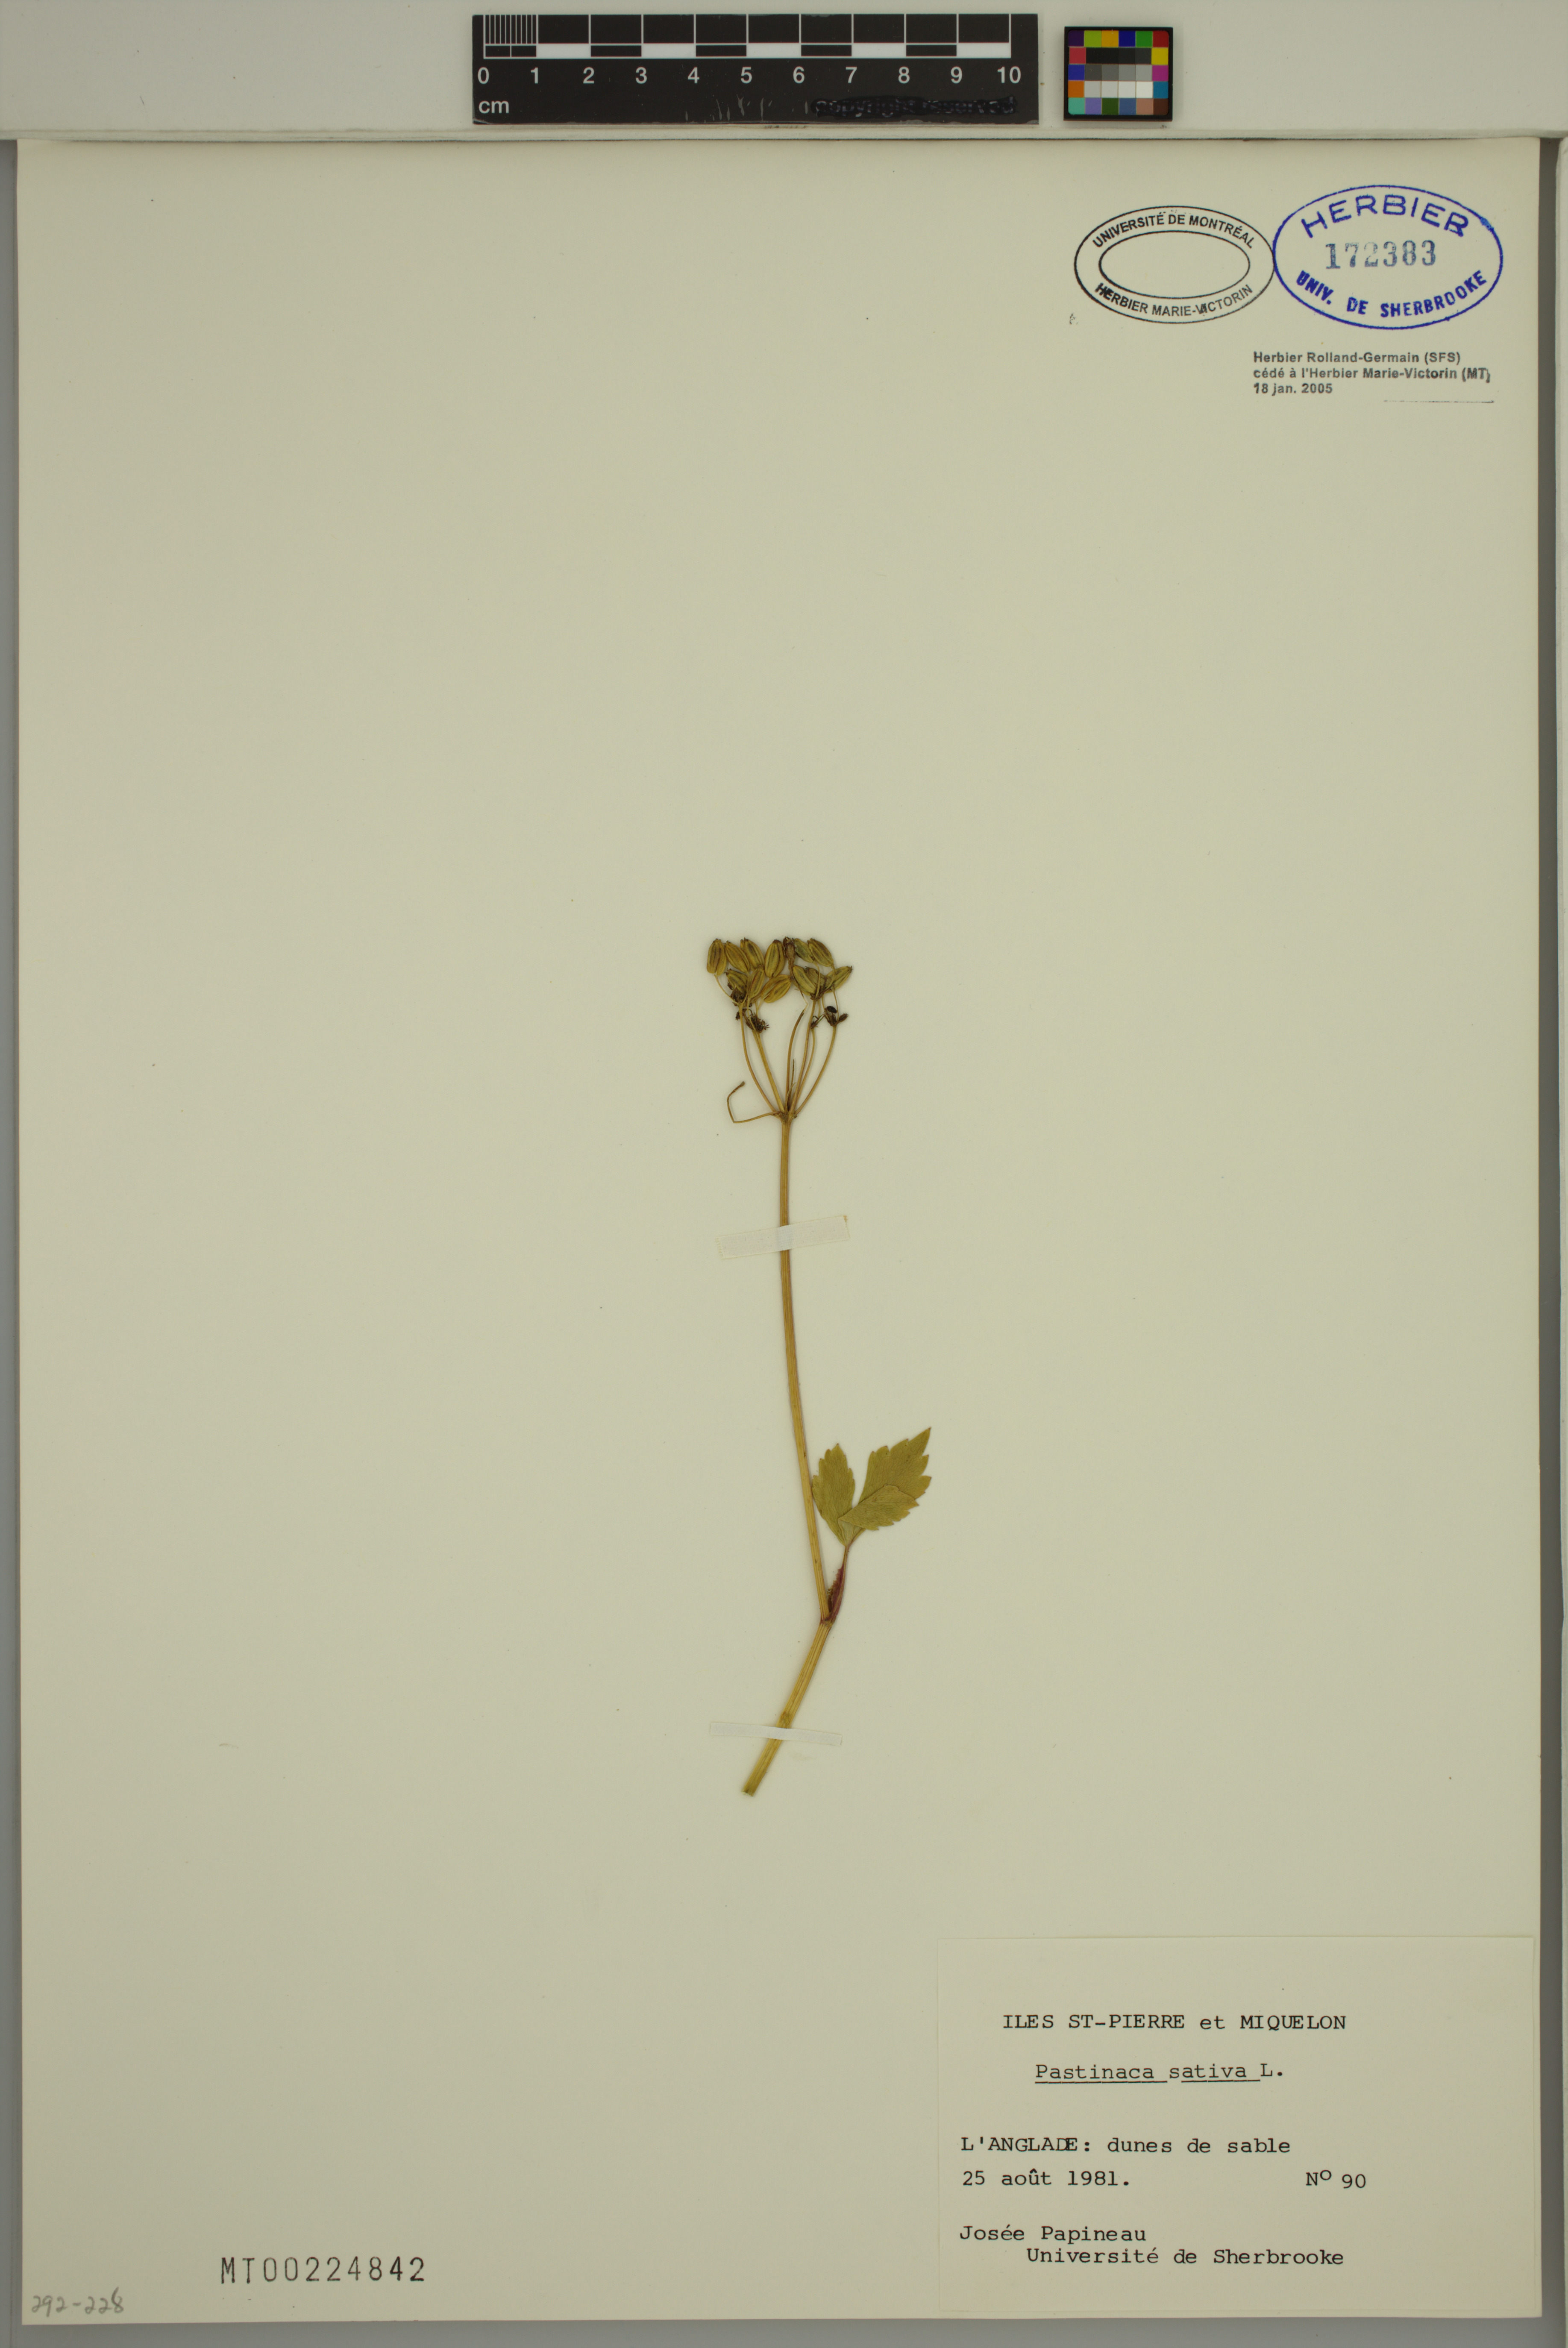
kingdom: Plantae
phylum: Tracheophyta
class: Magnoliopsida
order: Apiales
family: Apiaceae
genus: Pastinaca
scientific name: Pastinaca sativa
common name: Wild parsnip
